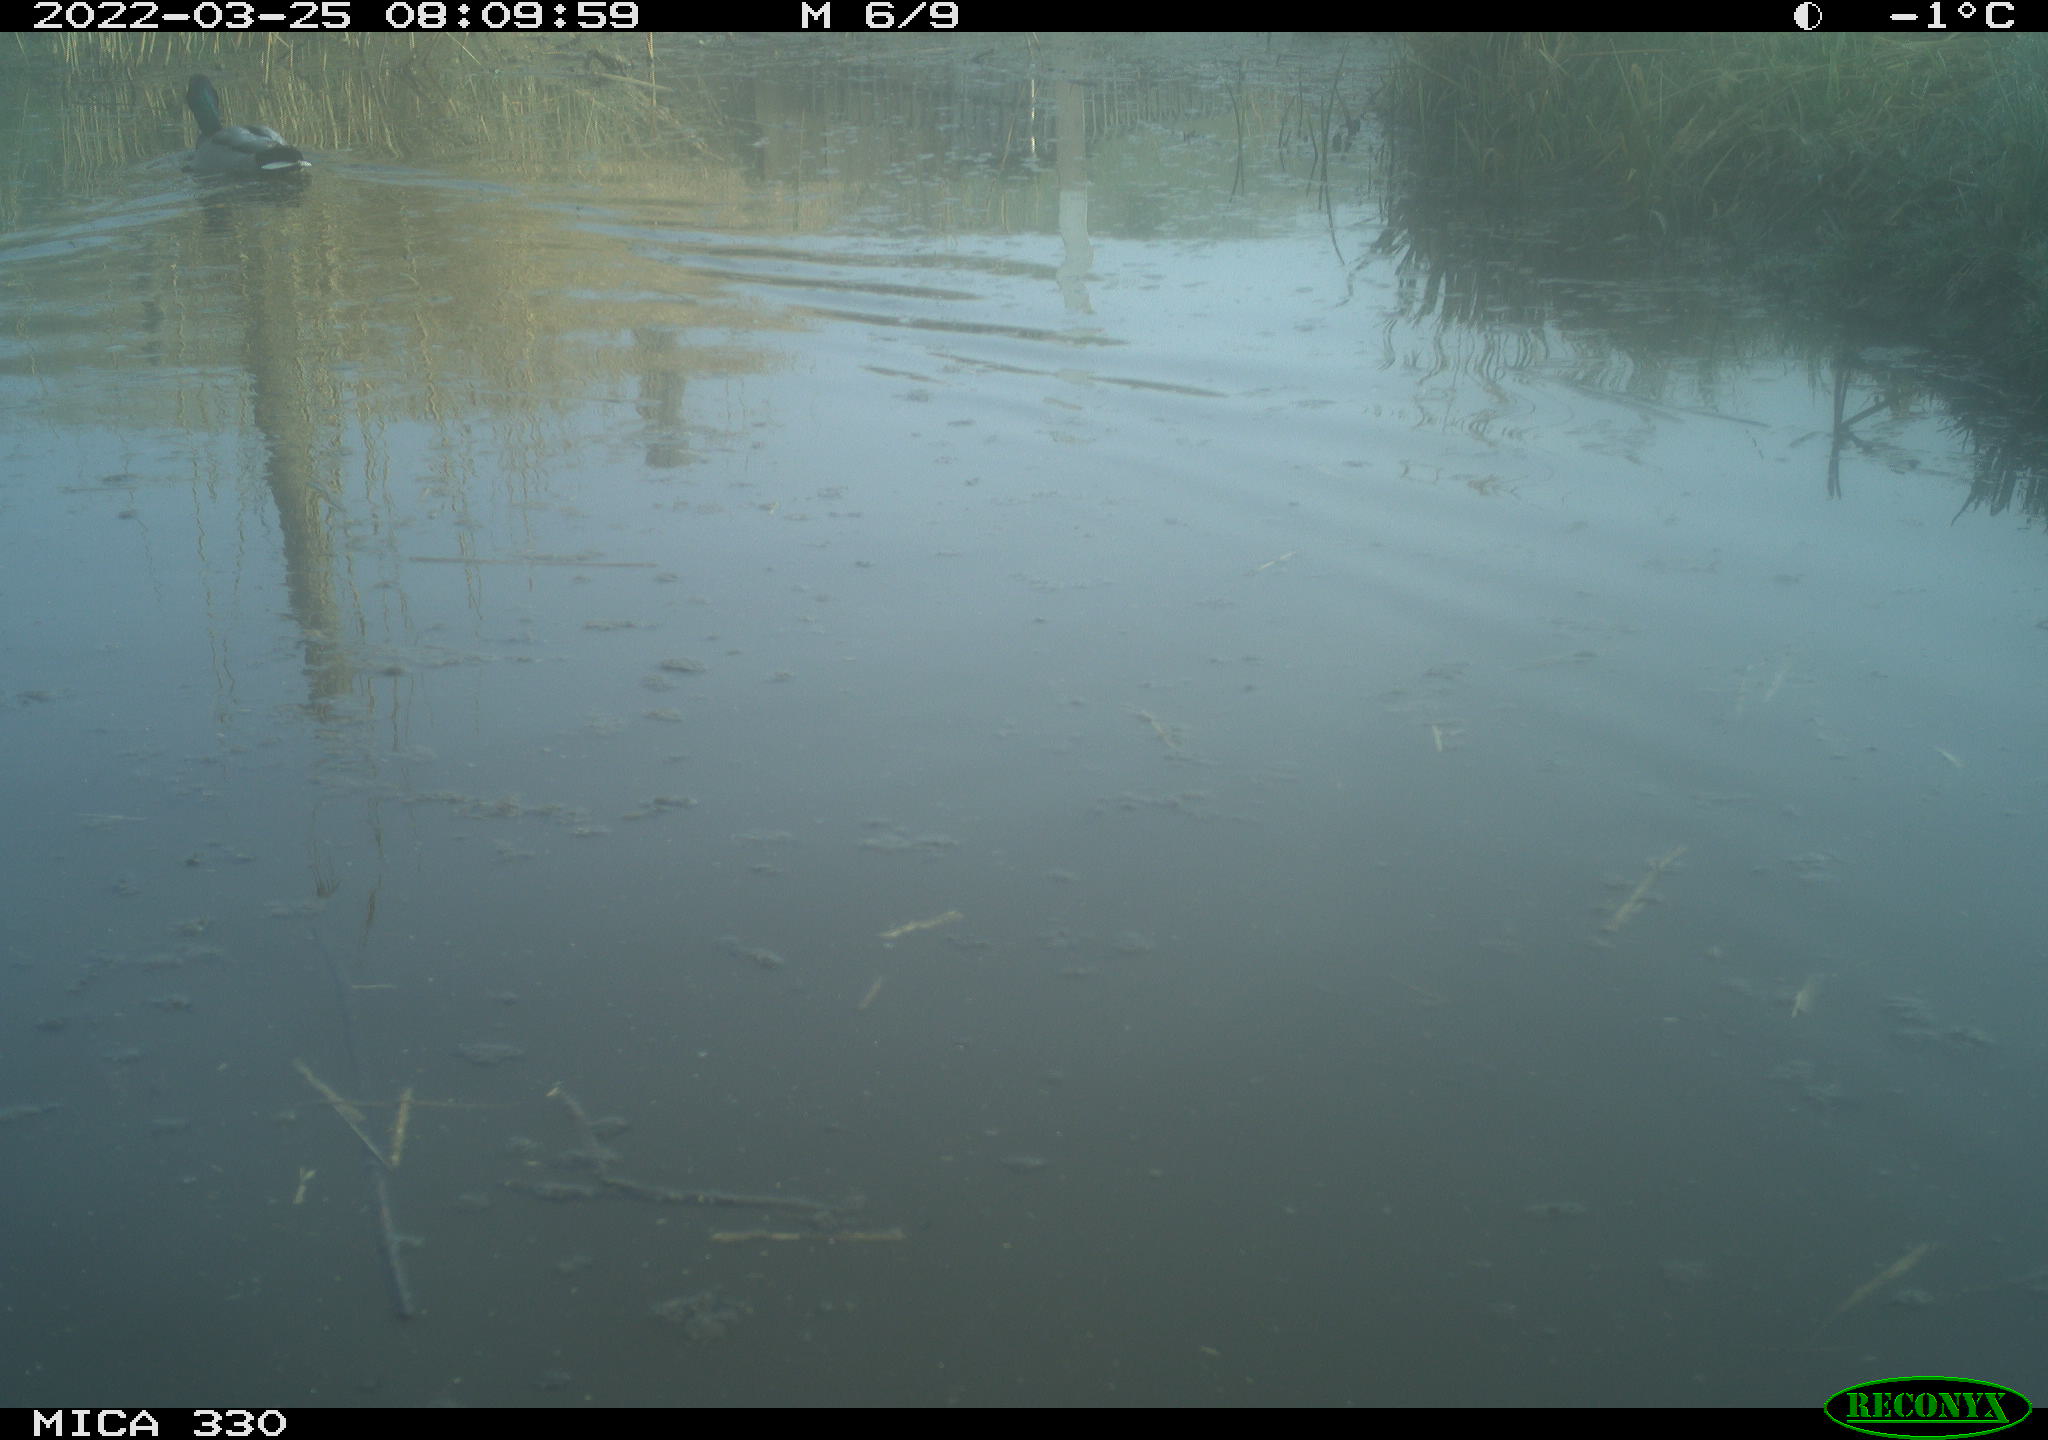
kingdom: Animalia
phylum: Chordata
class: Aves
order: Anseriformes
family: Anatidae
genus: Anas
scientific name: Anas platyrhynchos
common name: Mallard
